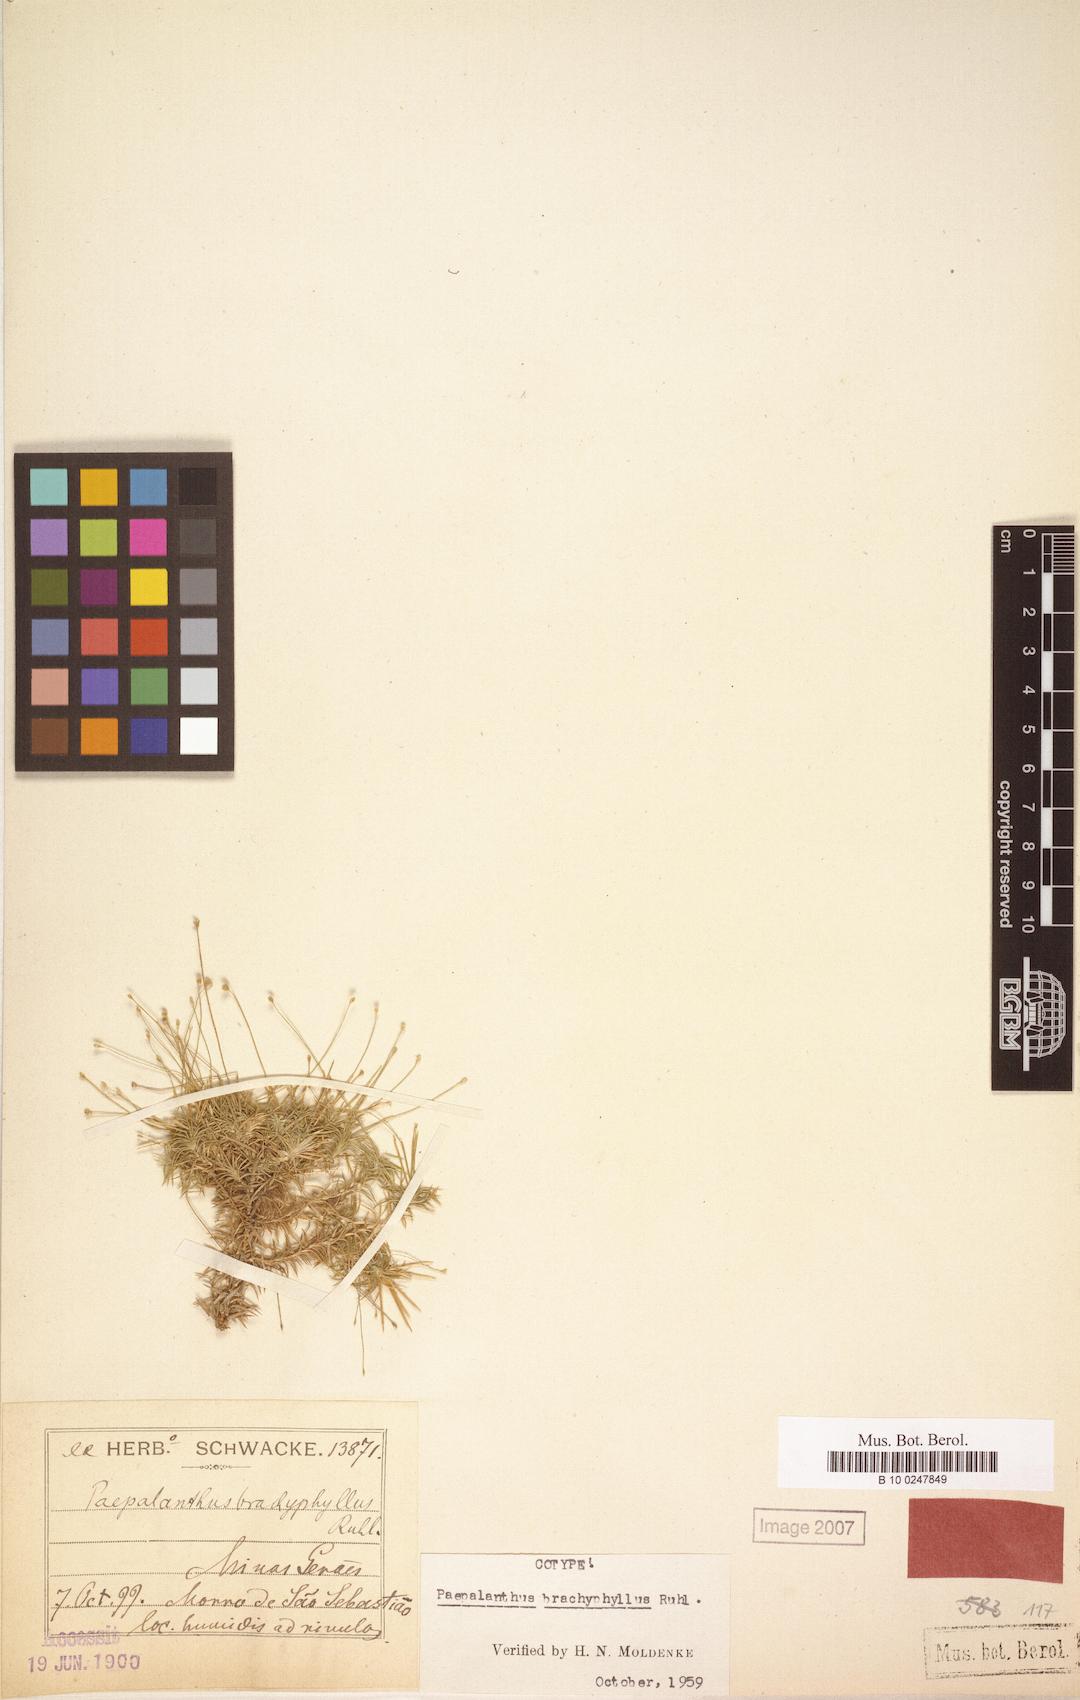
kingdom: Plantae
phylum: Tracheophyta
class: Liliopsida
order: Poales
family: Eriocaulaceae
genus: Paepalanthus
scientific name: Paepalanthus brachyphyllus
